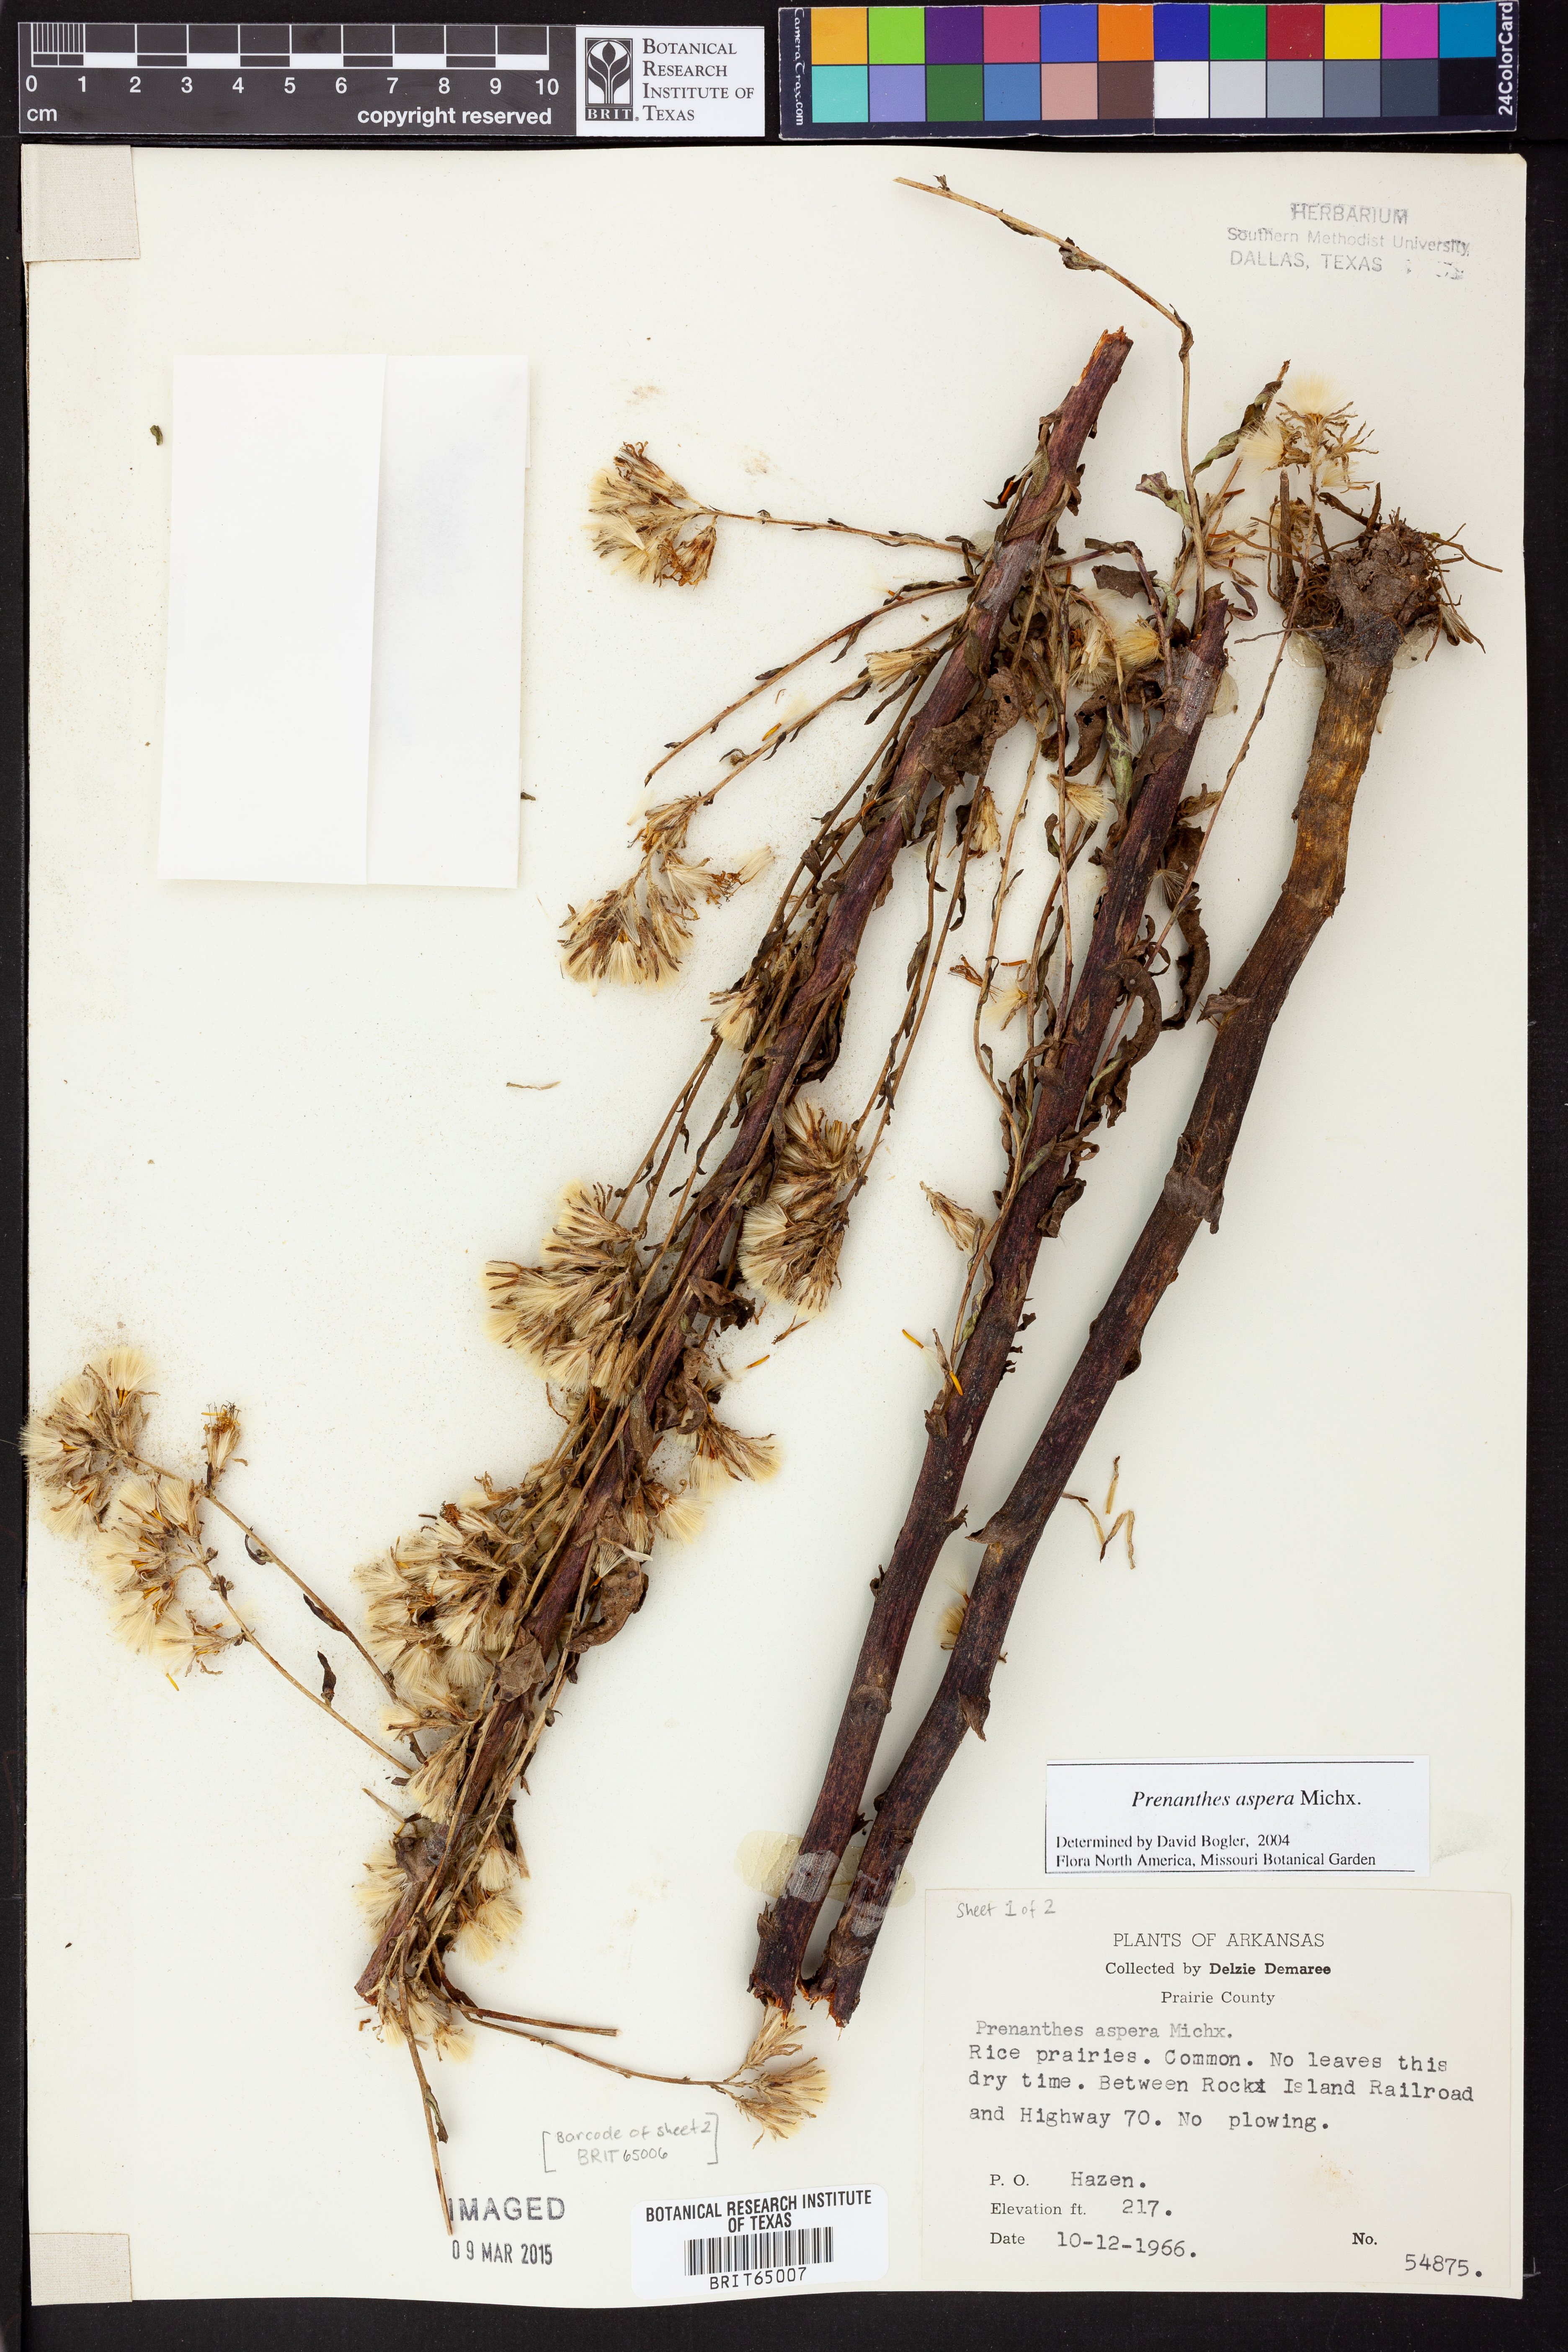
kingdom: Plantae
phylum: Tracheophyta
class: Magnoliopsida
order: Asterales
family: Asteraceae
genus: Nabalus
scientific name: Nabalus asper
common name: Rough rattlesnakeroot
